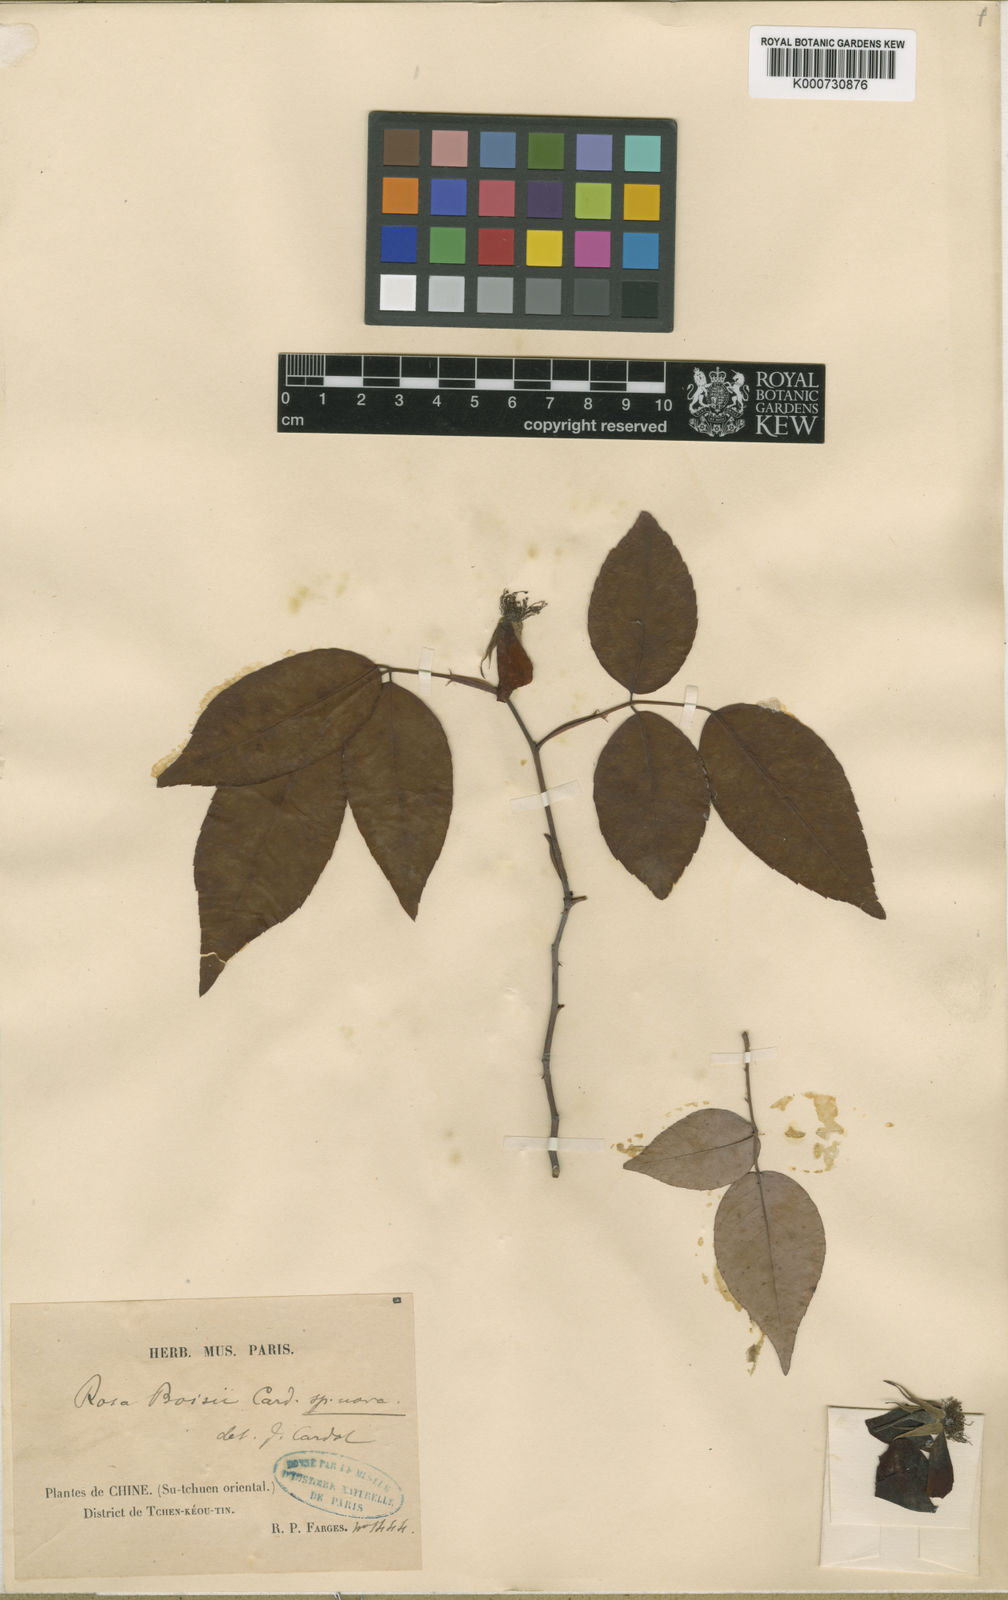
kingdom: Plantae
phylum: Tracheophyta
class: Magnoliopsida
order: Rosales
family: Rosaceae
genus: Rosa
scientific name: Rosa lucidissima
